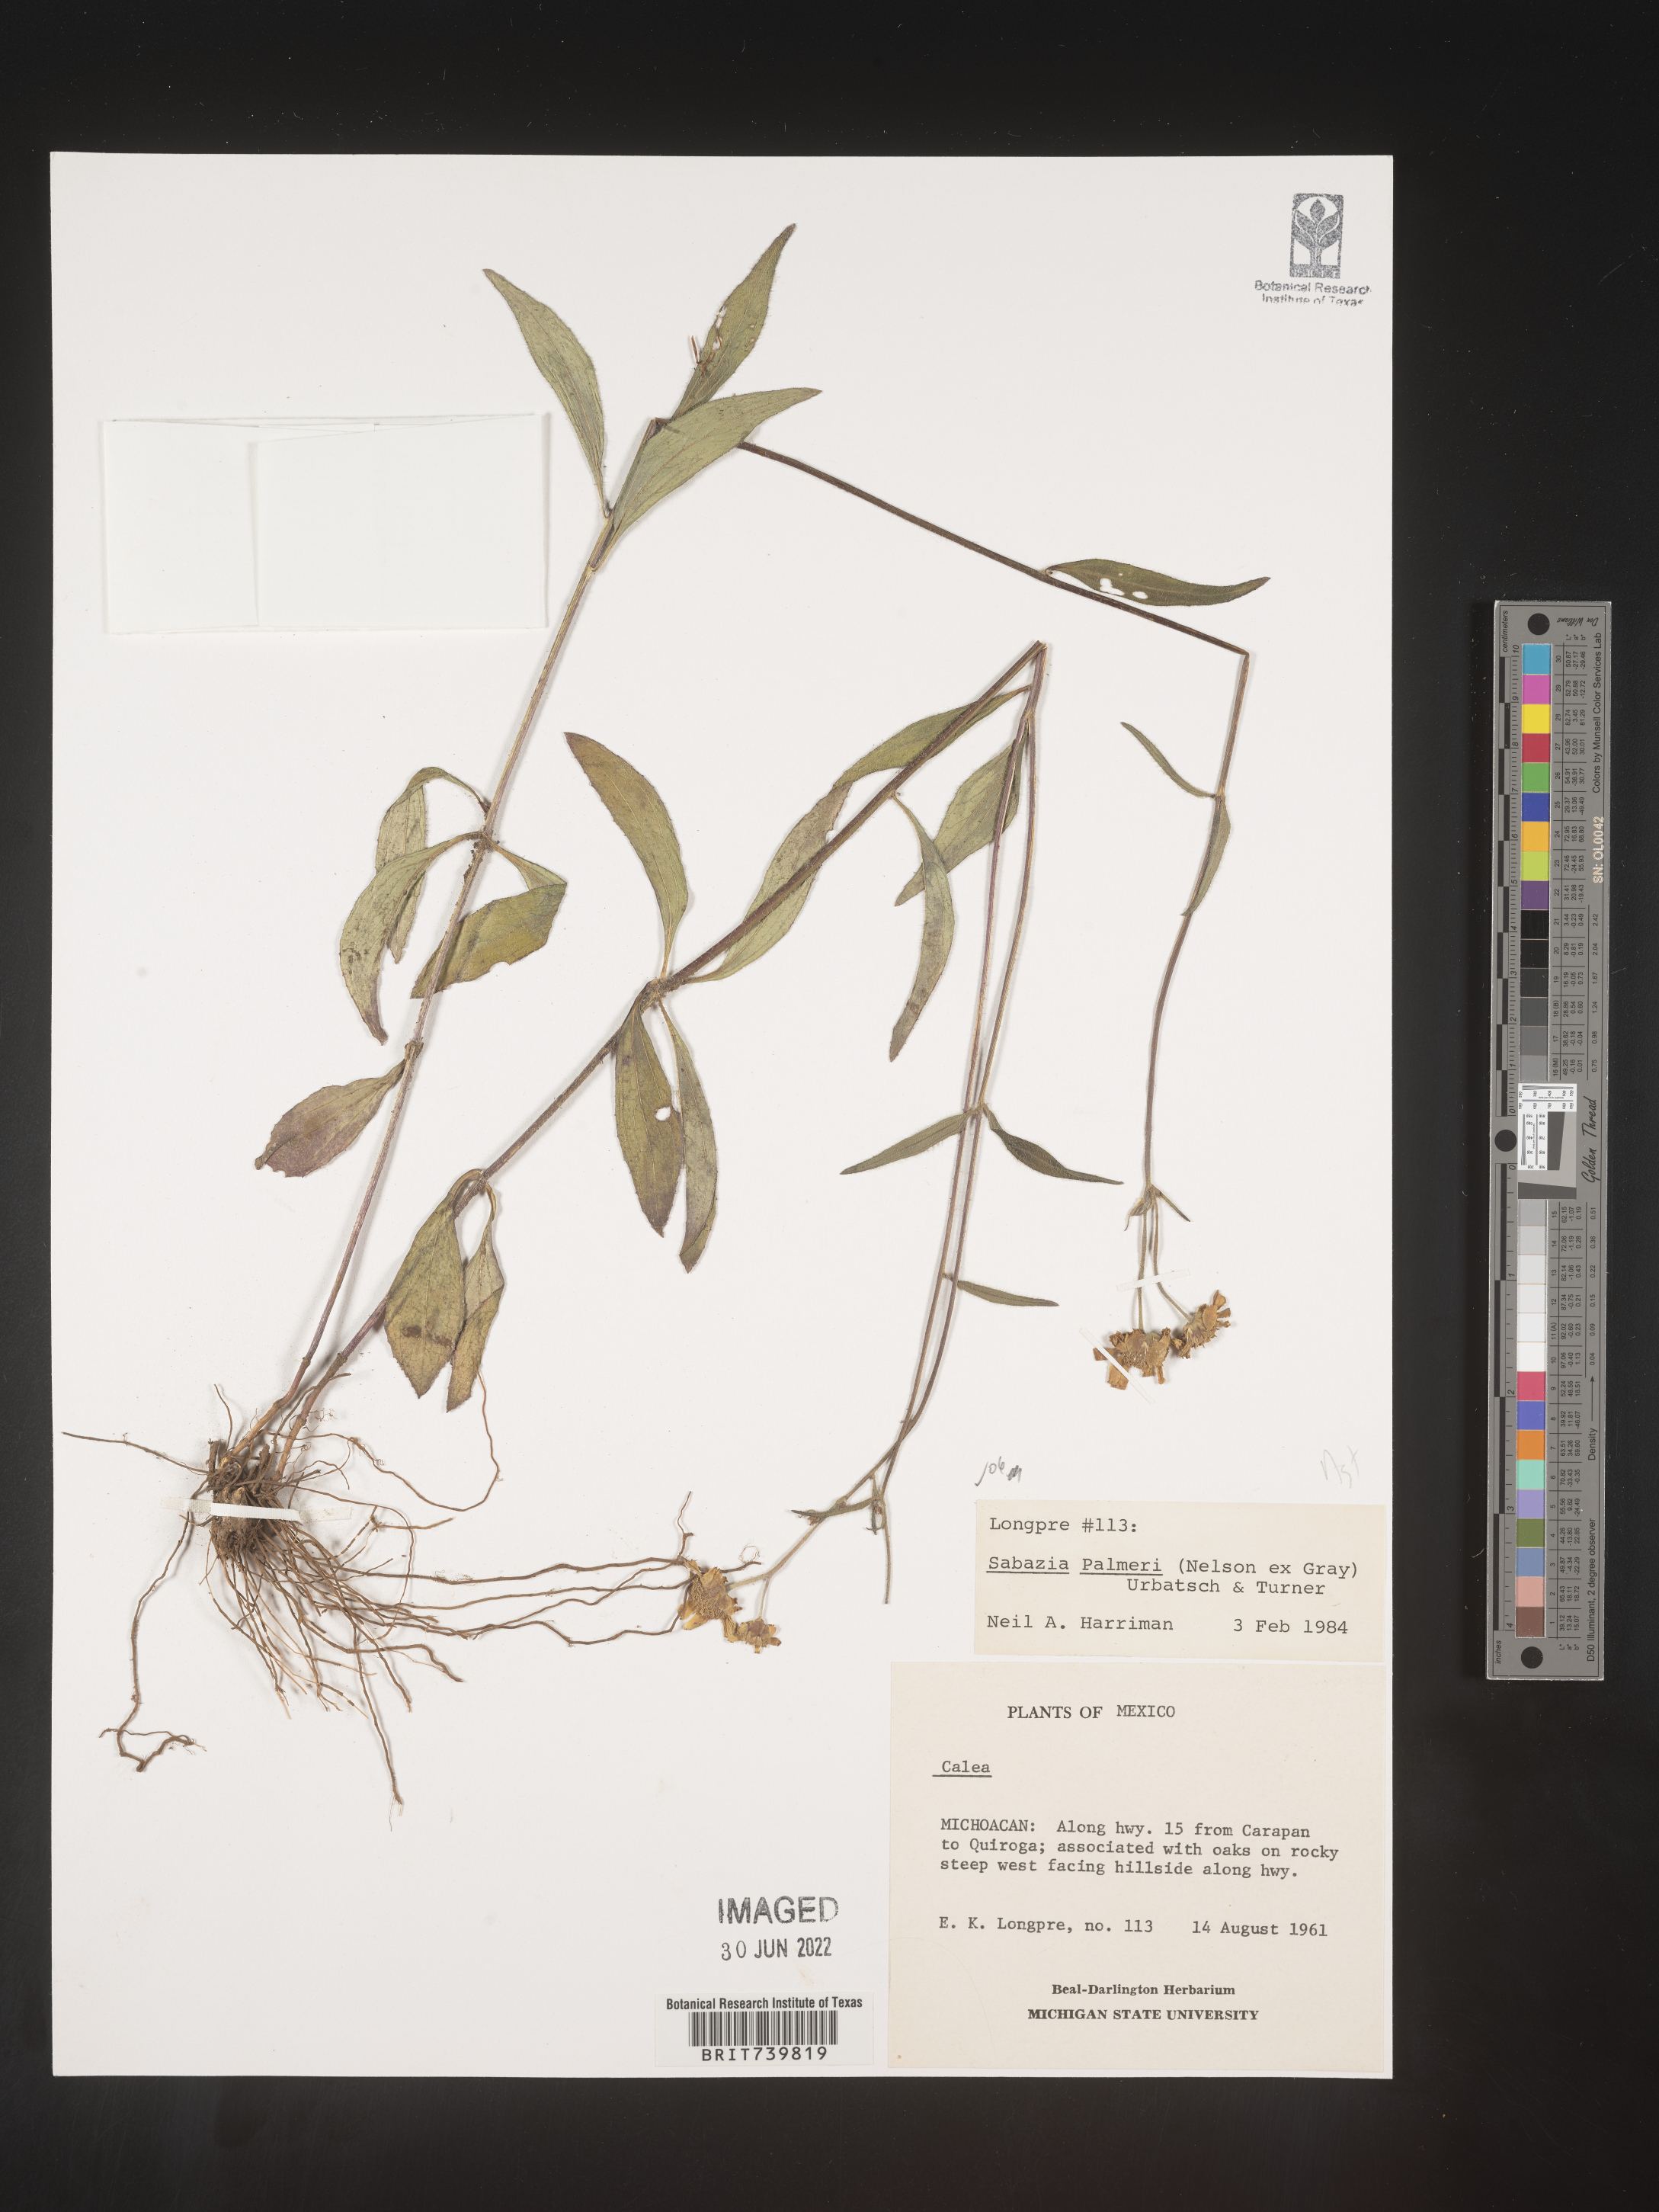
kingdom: Plantae
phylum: Tracheophyta
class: Magnoliopsida
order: Asterales
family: Asteraceae
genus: Sabazia
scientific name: Sabazia
